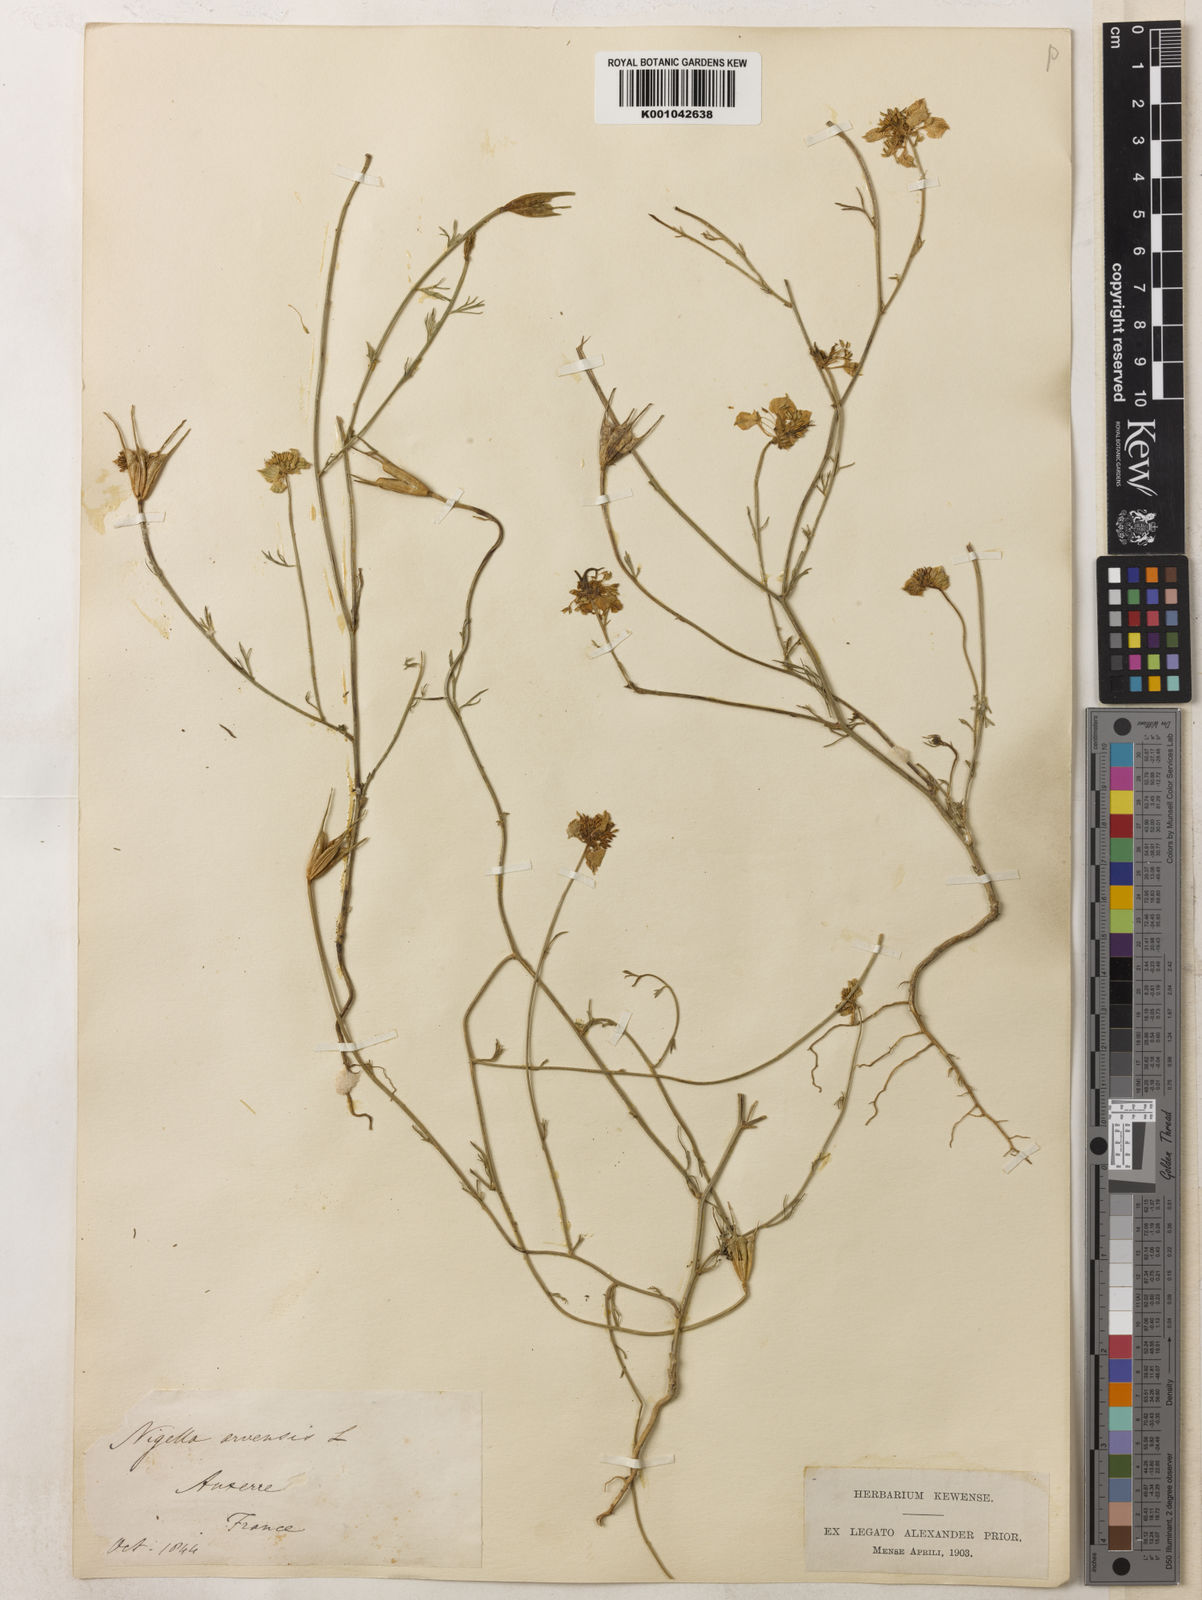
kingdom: Plantae
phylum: Tracheophyta
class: Magnoliopsida
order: Ranunculales
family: Ranunculaceae
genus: Nigella
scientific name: Nigella arvensis
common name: Wild fennel-flower
